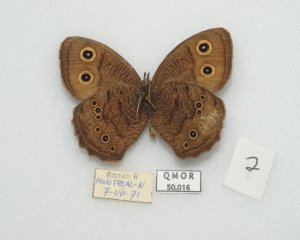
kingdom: Animalia
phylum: Arthropoda
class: Insecta
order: Lepidoptera
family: Nymphalidae
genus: Cercyonis
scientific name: Cercyonis pegala
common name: Common Wood-Nymph
